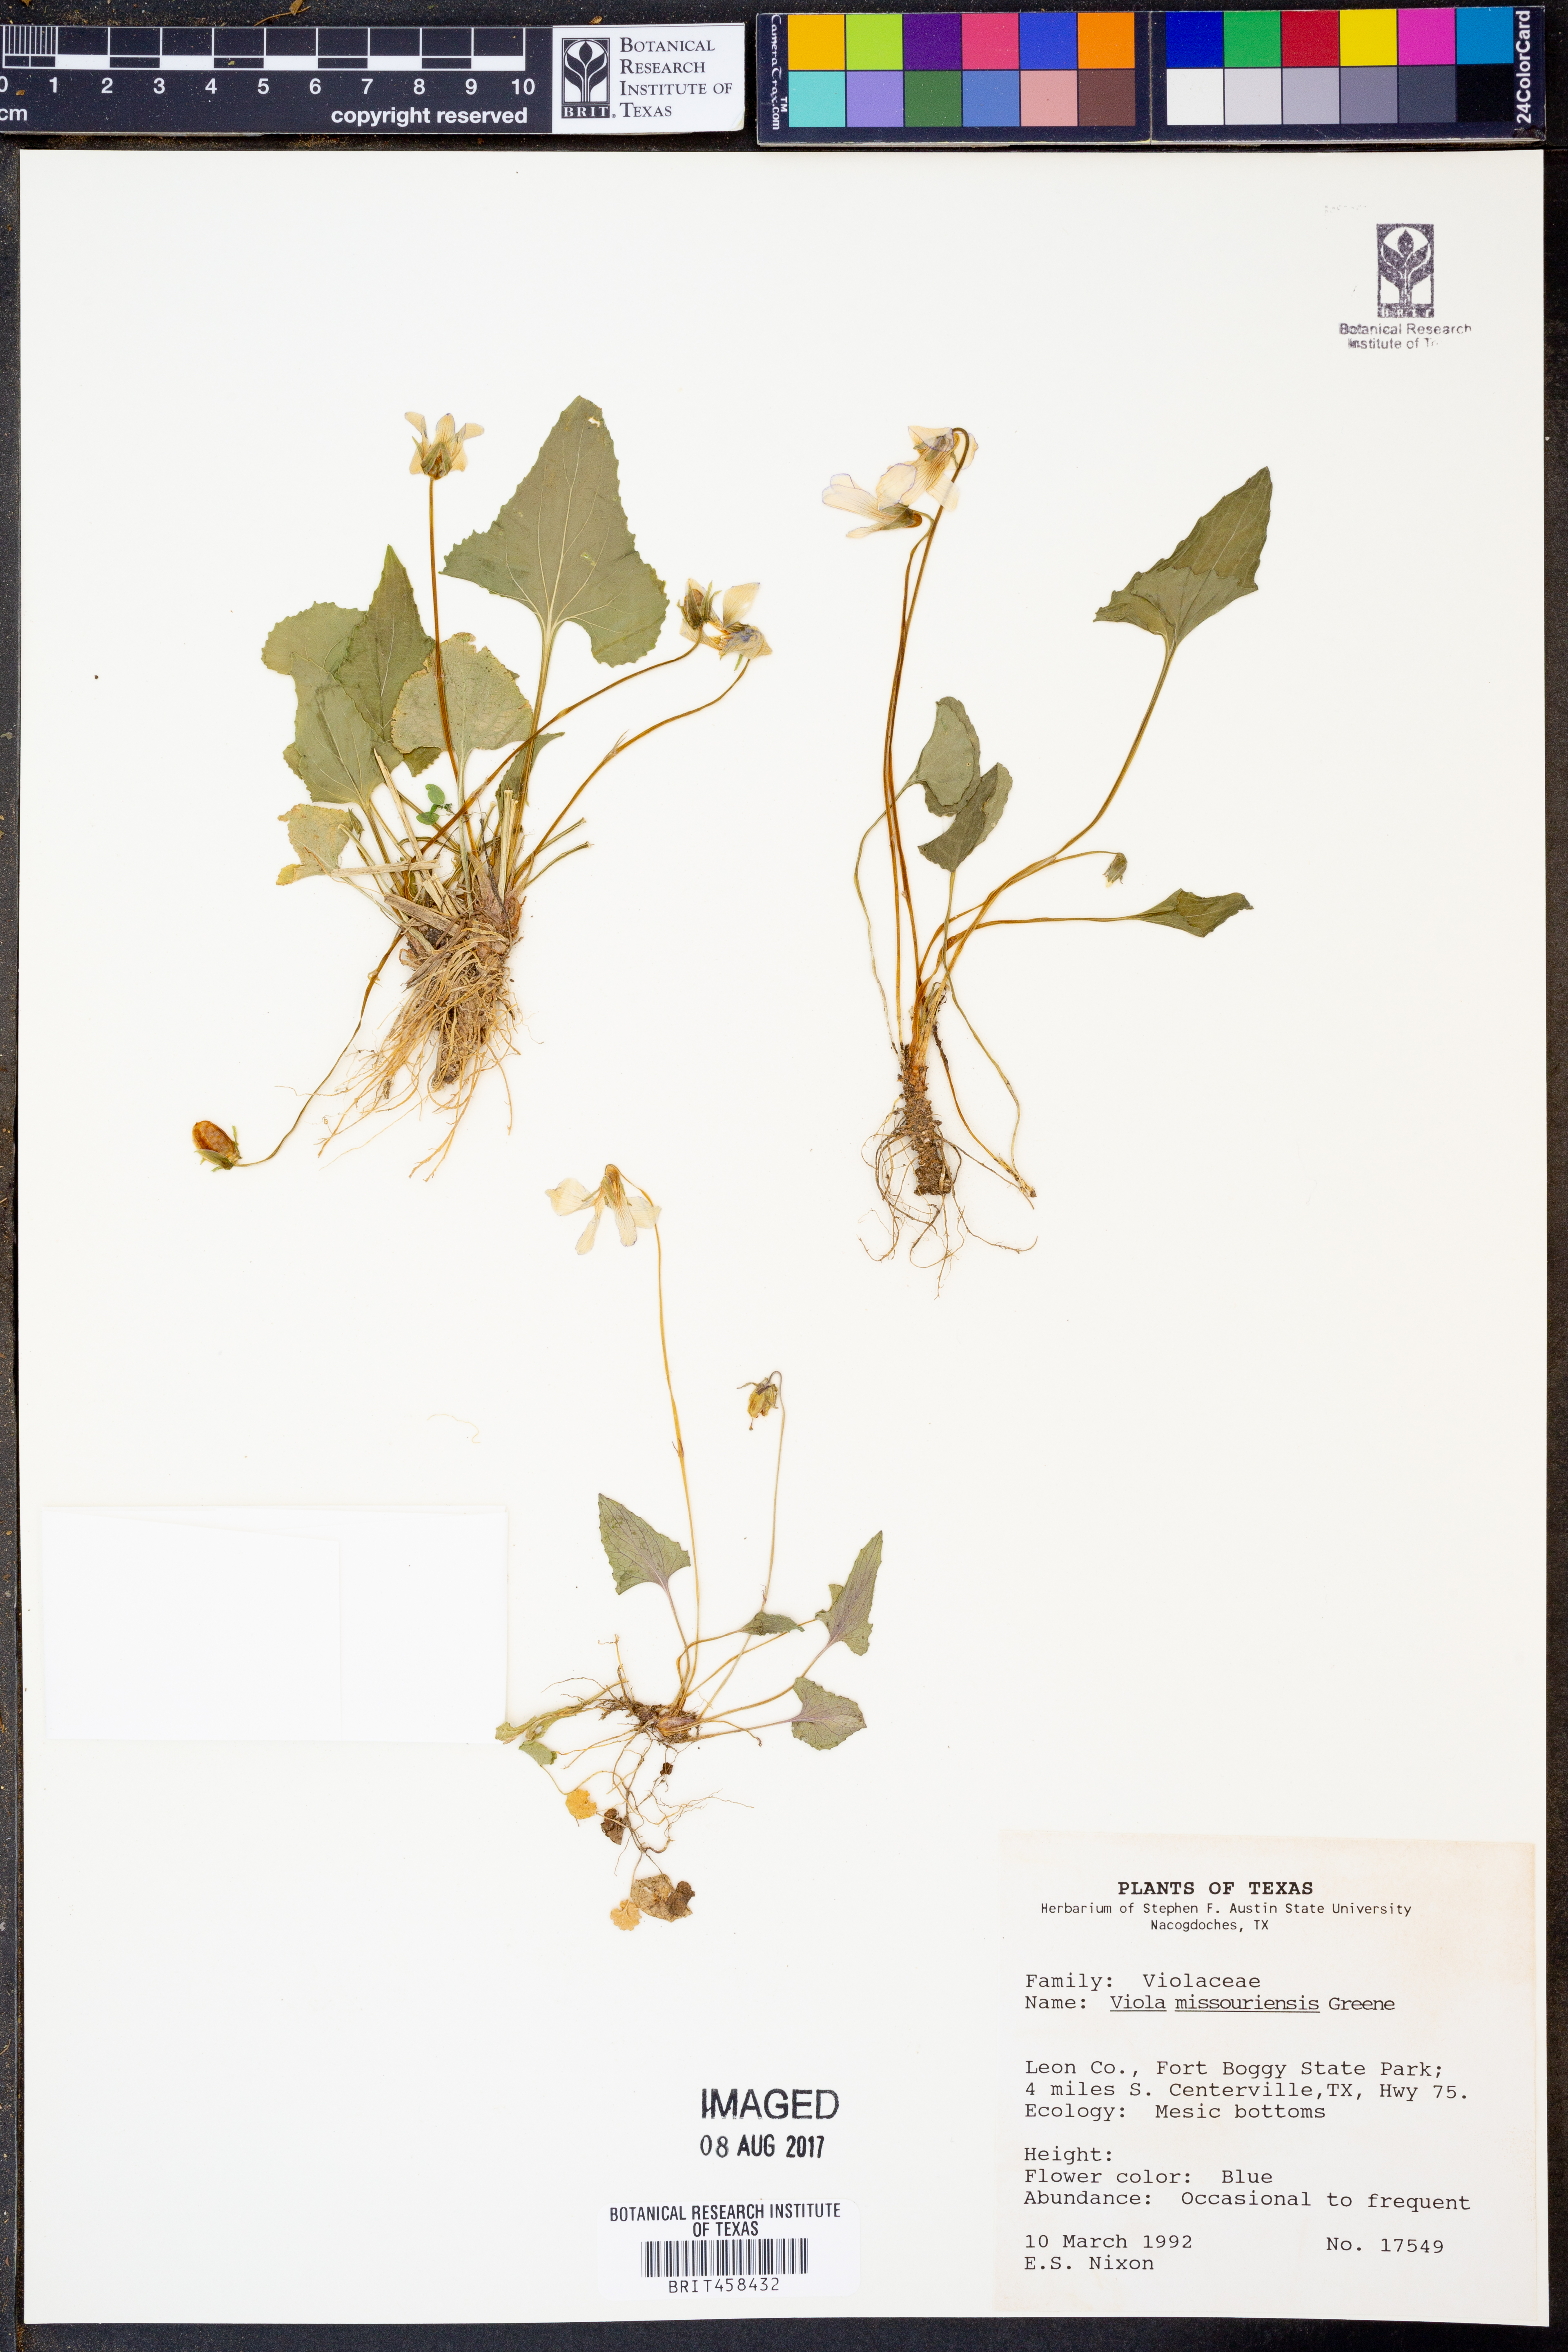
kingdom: Plantae
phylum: Tracheophyta
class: Magnoliopsida
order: Malpighiales
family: Violaceae
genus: Viola
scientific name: Viola missouriensis
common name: Missouri violet
